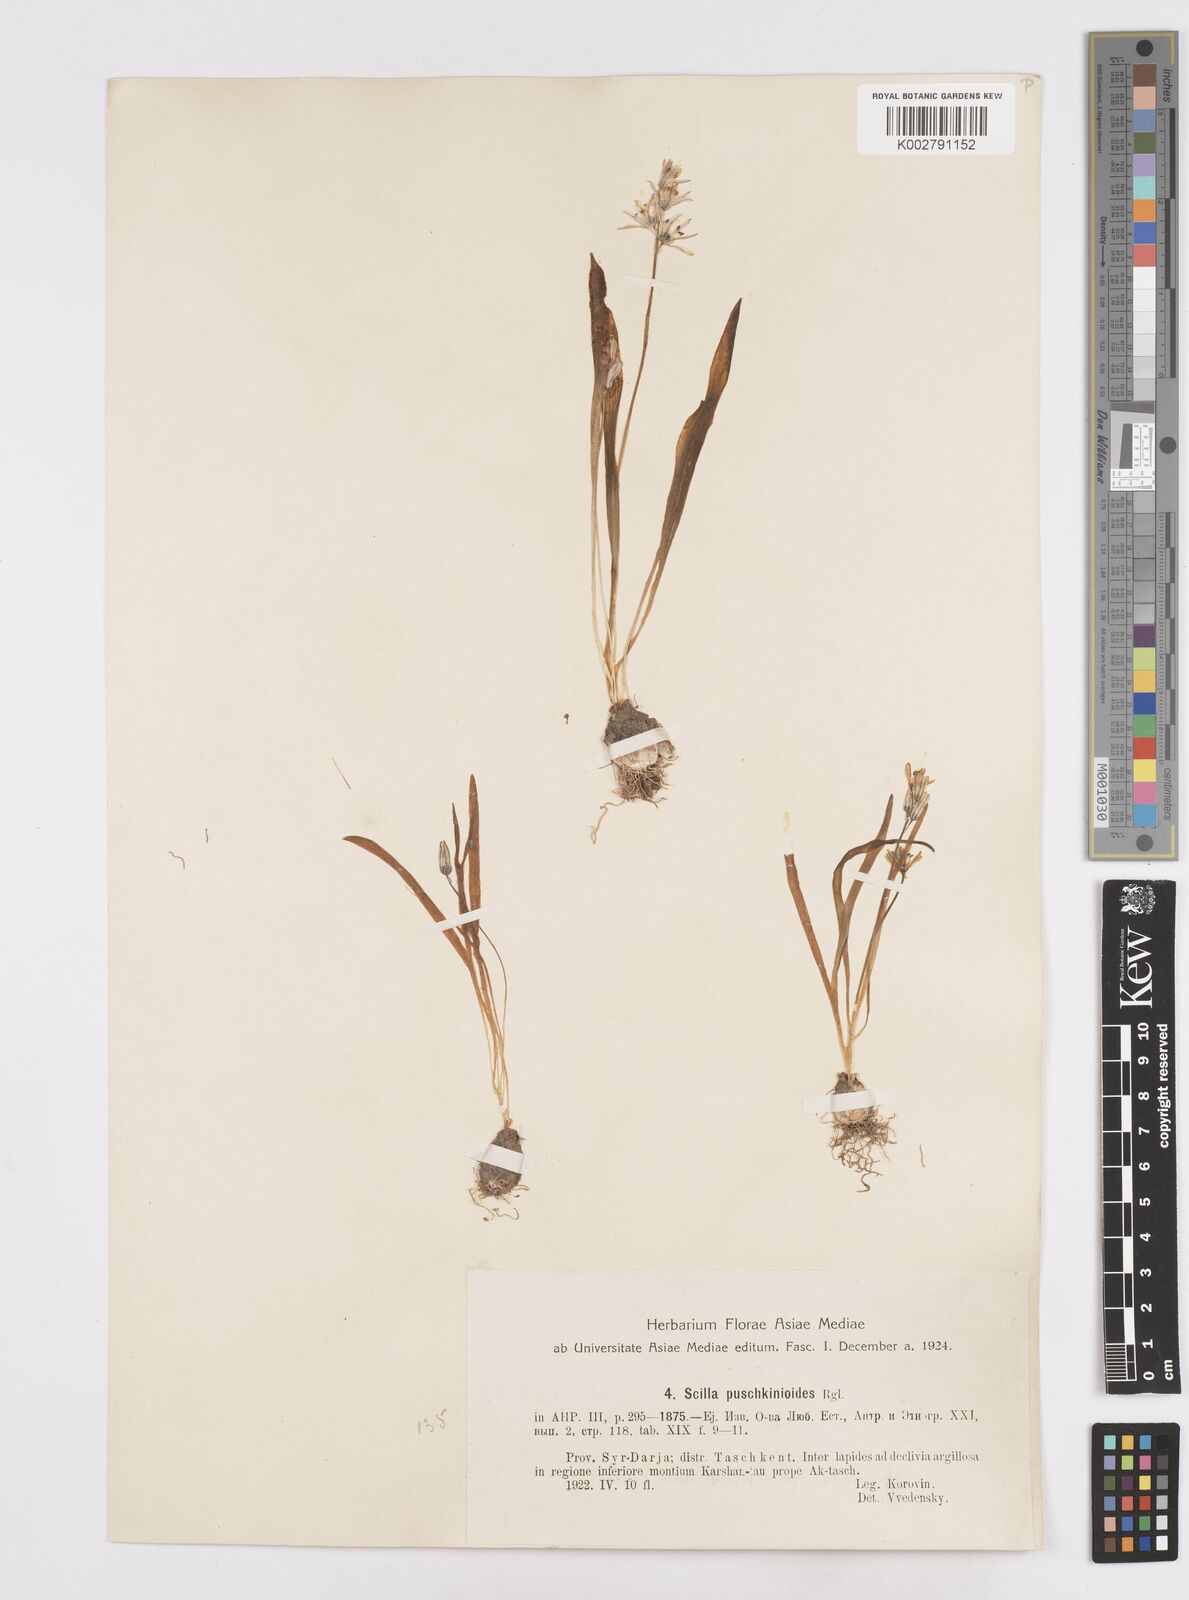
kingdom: Plantae
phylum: Tracheophyta
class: Liliopsida
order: Asparagales
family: Asparagaceae
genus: Fessia
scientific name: Fessia puschkinioides
